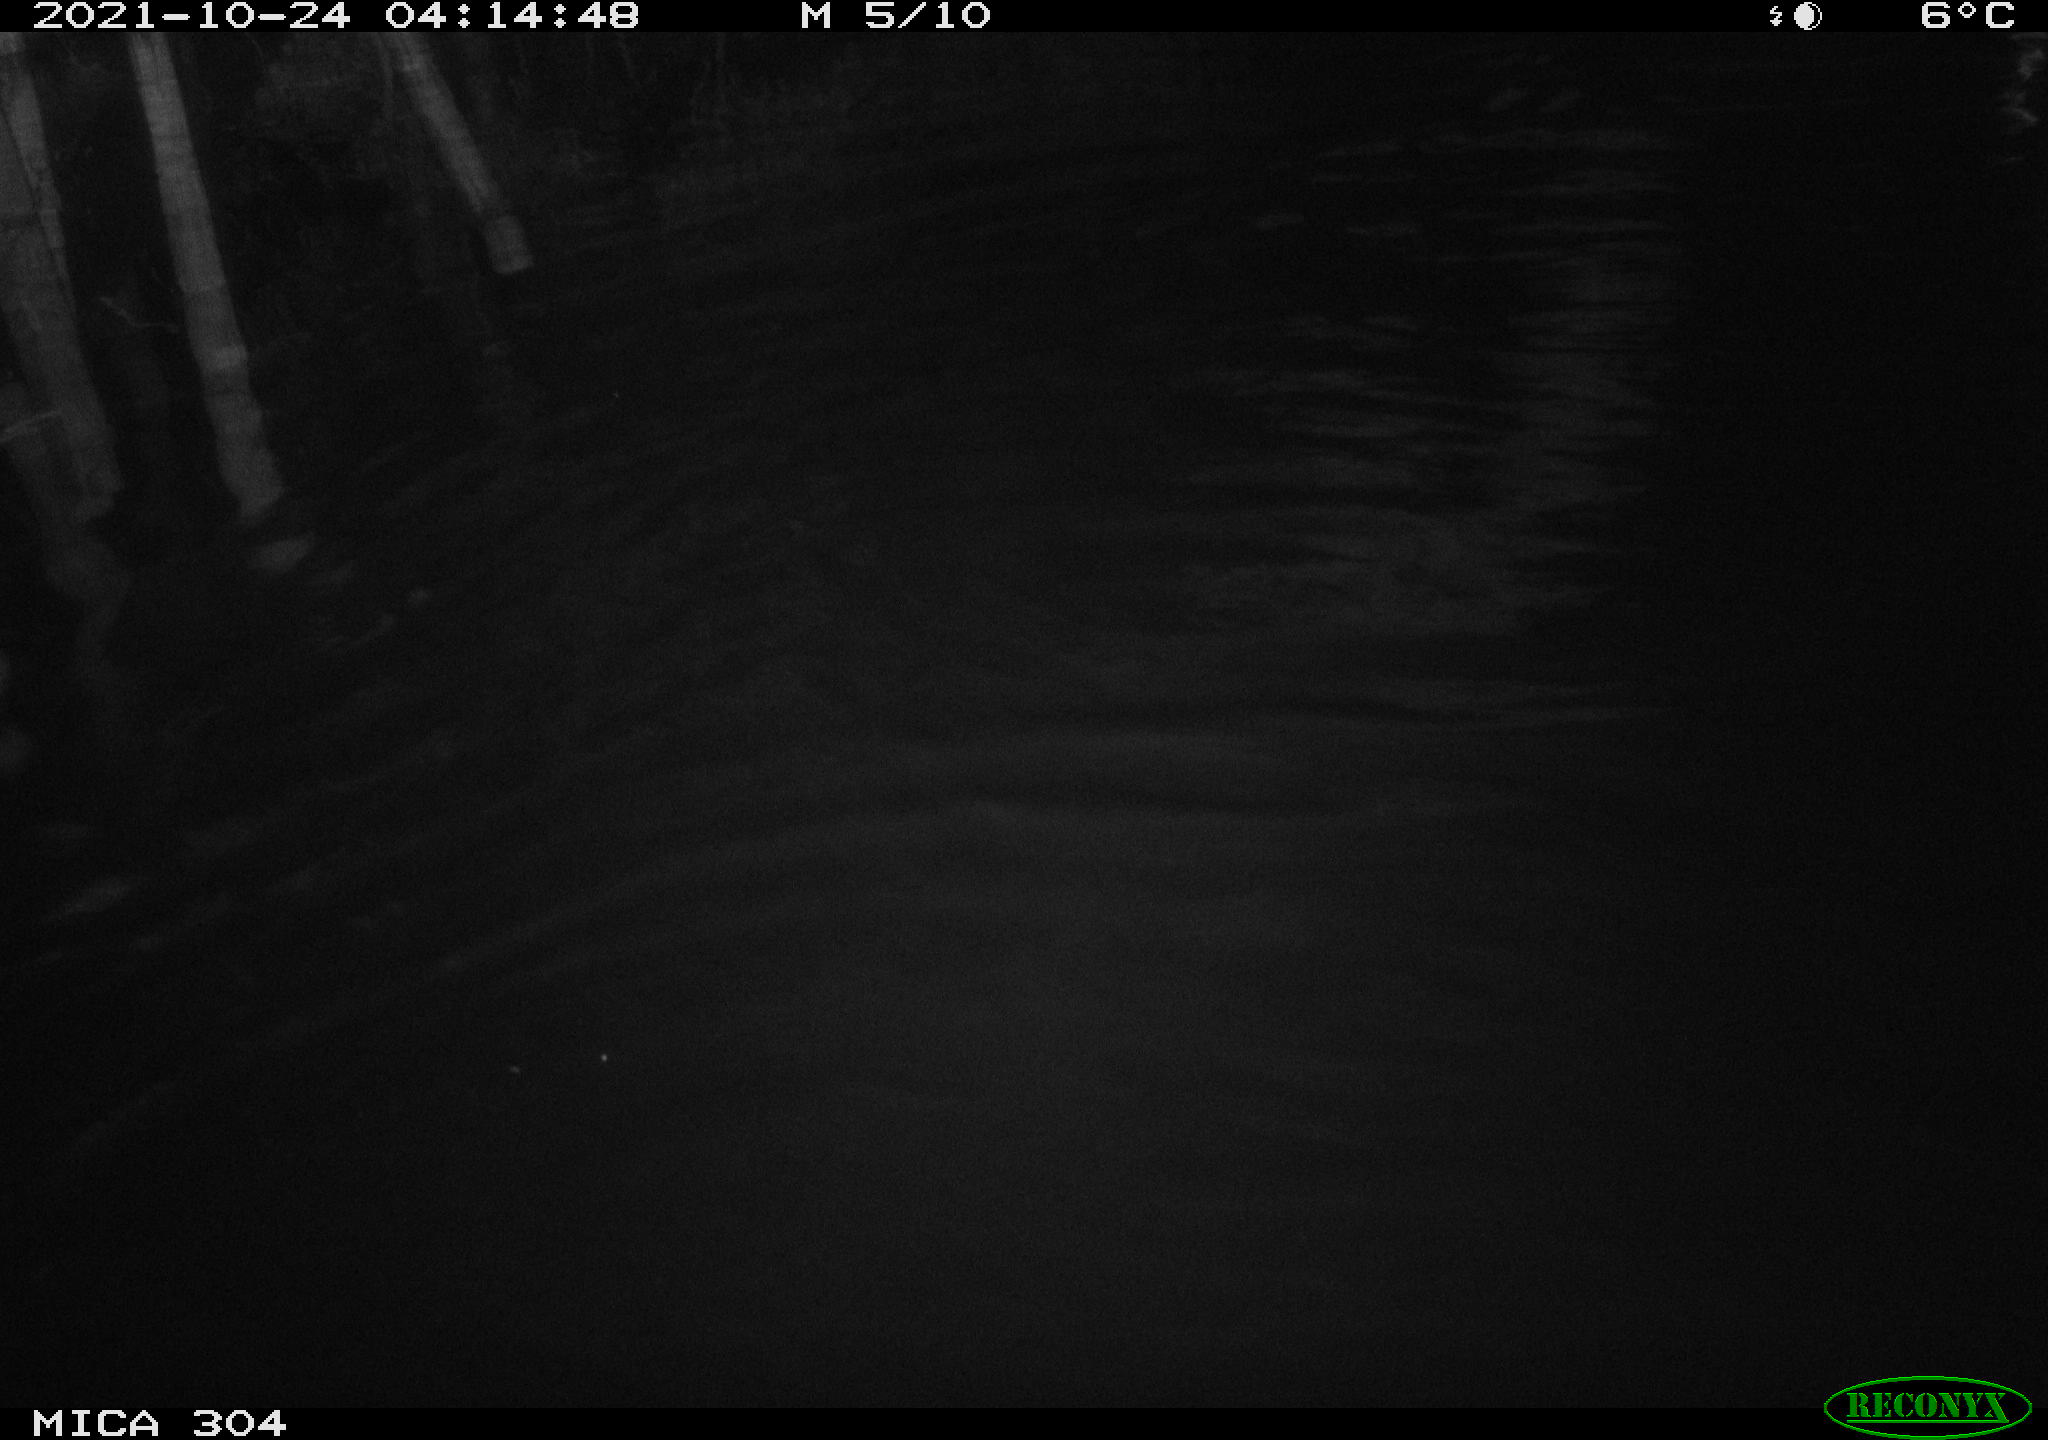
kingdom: Animalia
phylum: Chordata
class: Mammalia
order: Rodentia
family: Cricetidae
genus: Ondatra
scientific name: Ondatra zibethicus
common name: Muskrat
